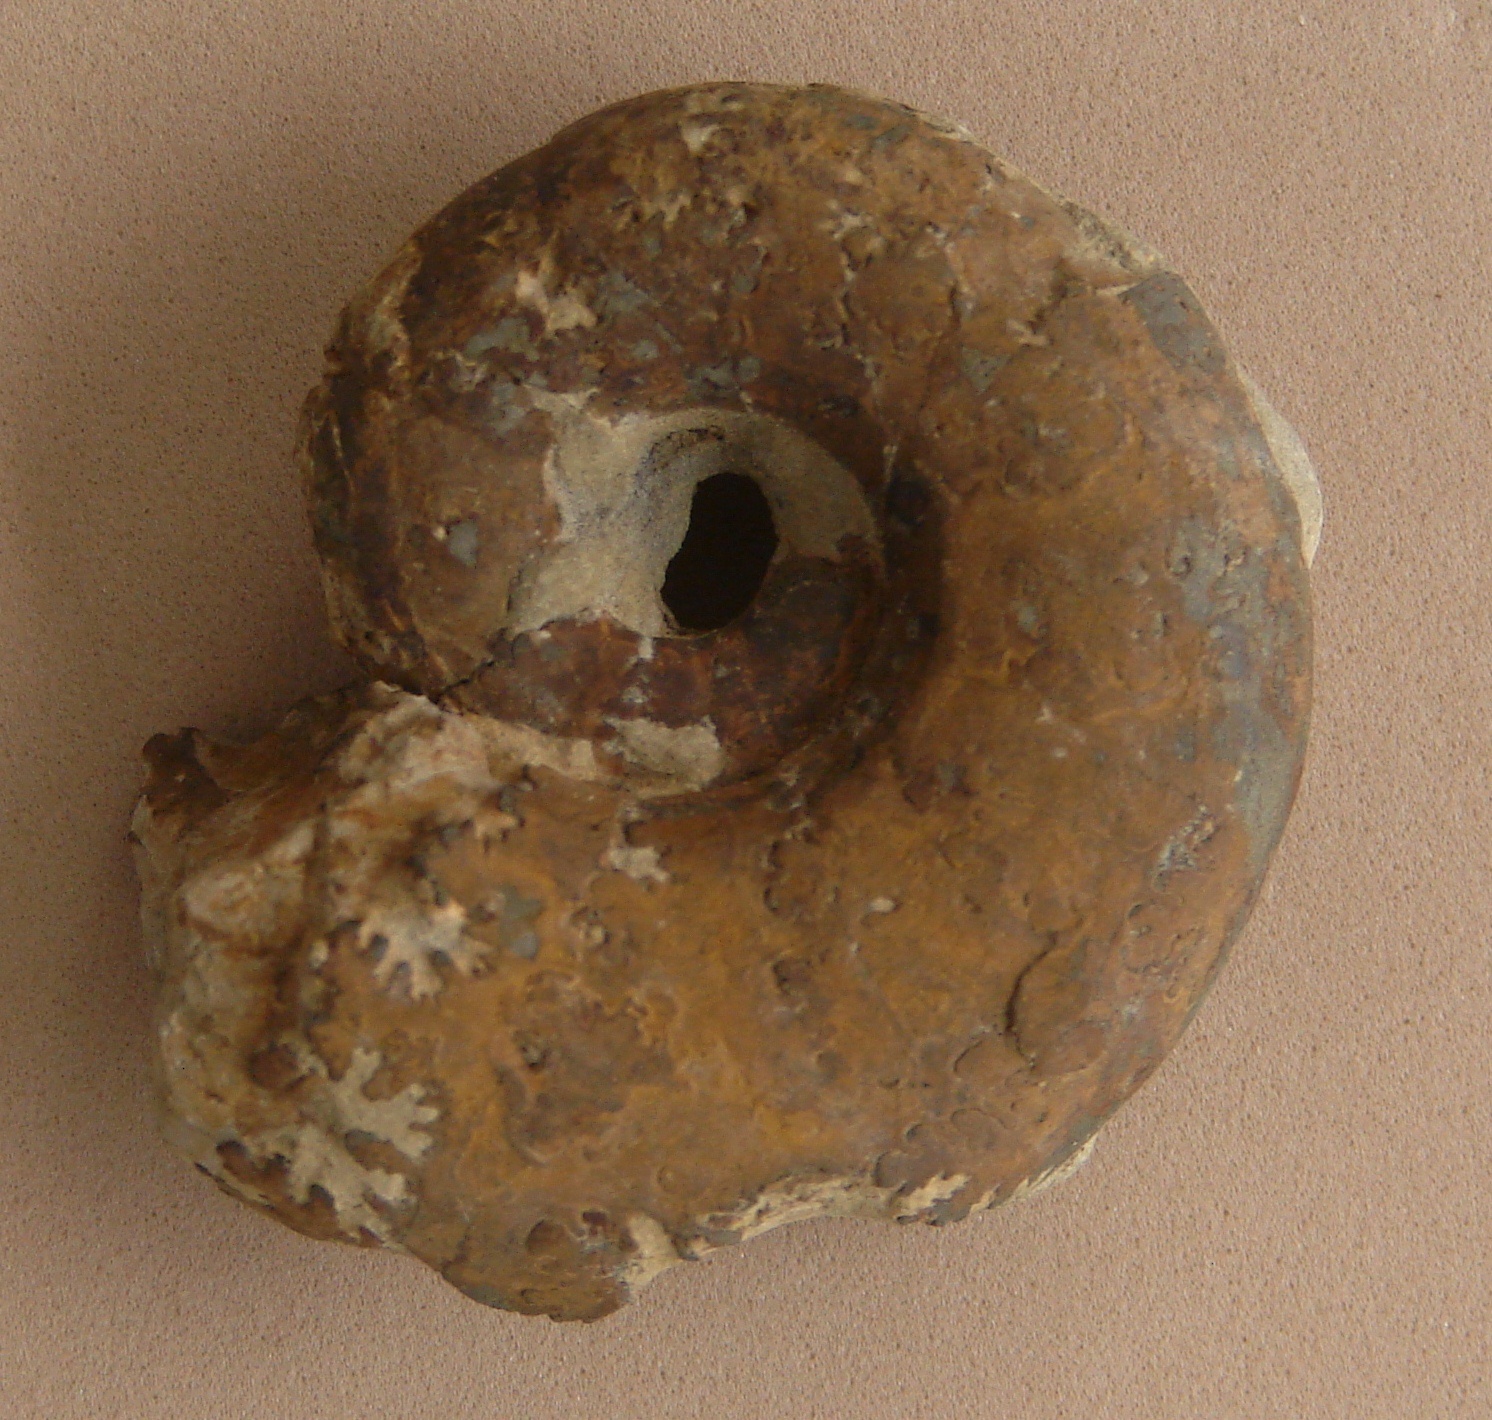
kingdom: Animalia
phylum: Mollusca
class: Cephalopoda
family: Lytoceratidae
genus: Pleurolytoceras
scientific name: Pleurolytoceras hircinum
